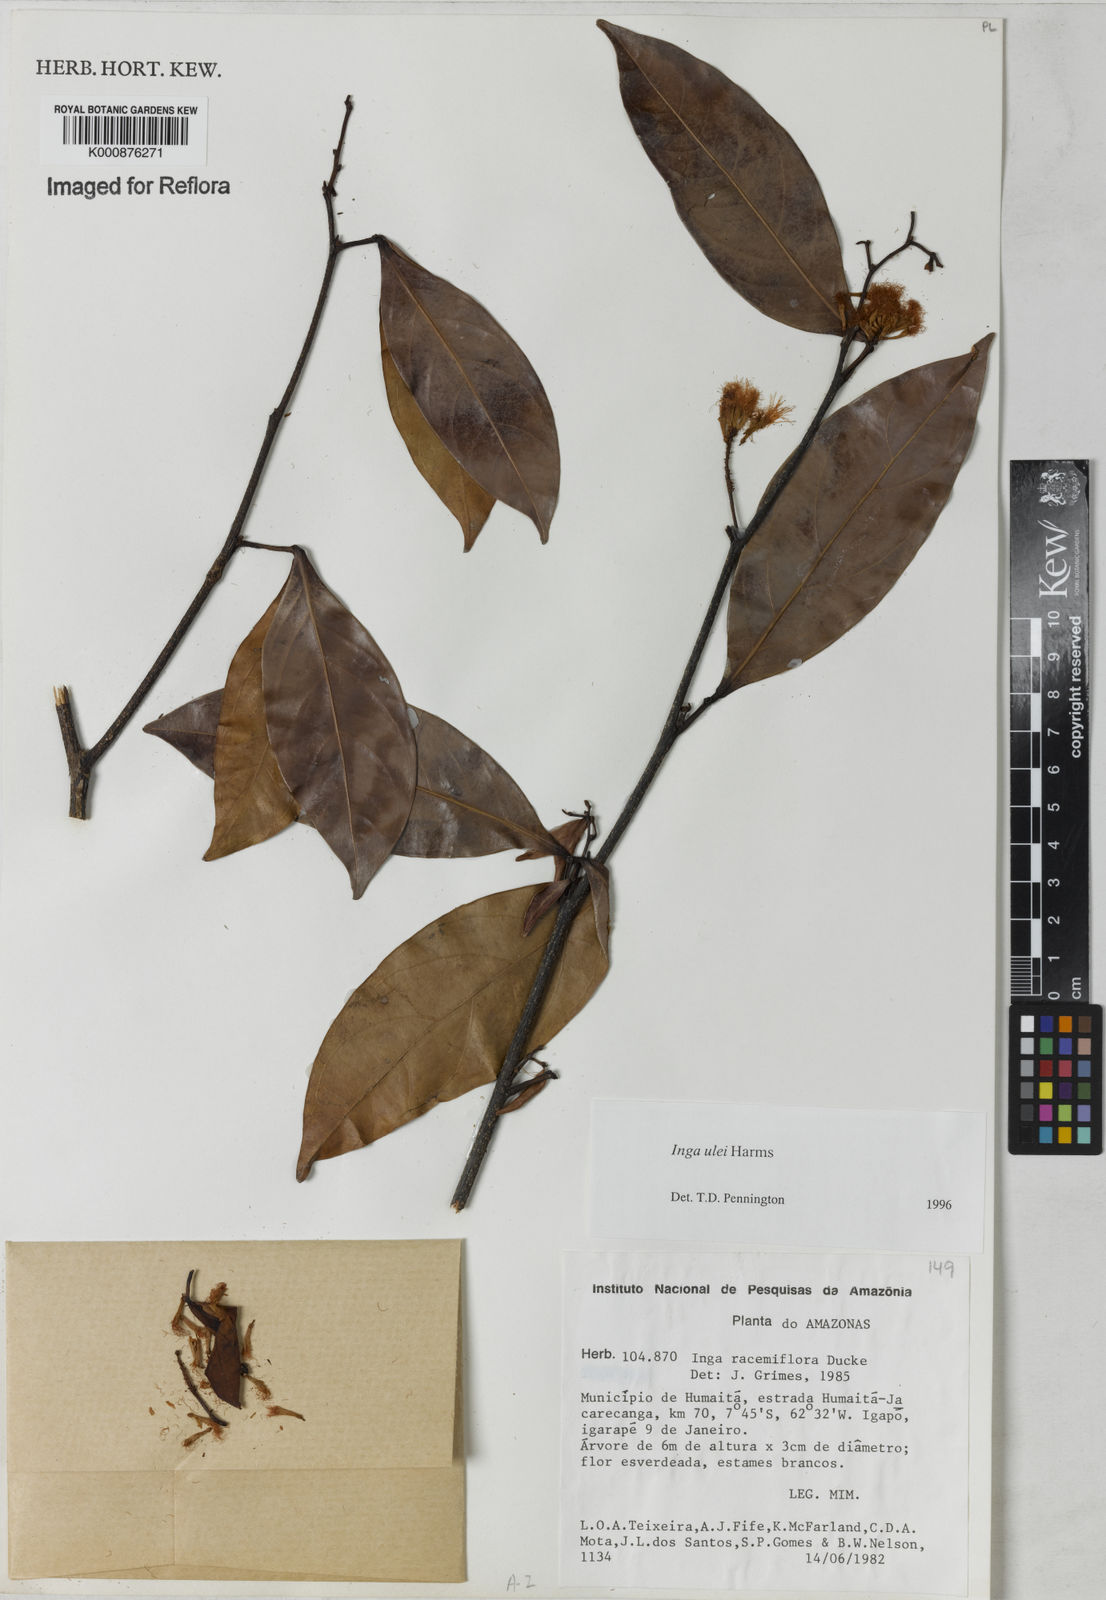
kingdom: Plantae
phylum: Tracheophyta
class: Magnoliopsida
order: Fabales
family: Fabaceae
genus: Inga
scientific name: Inga ulei
